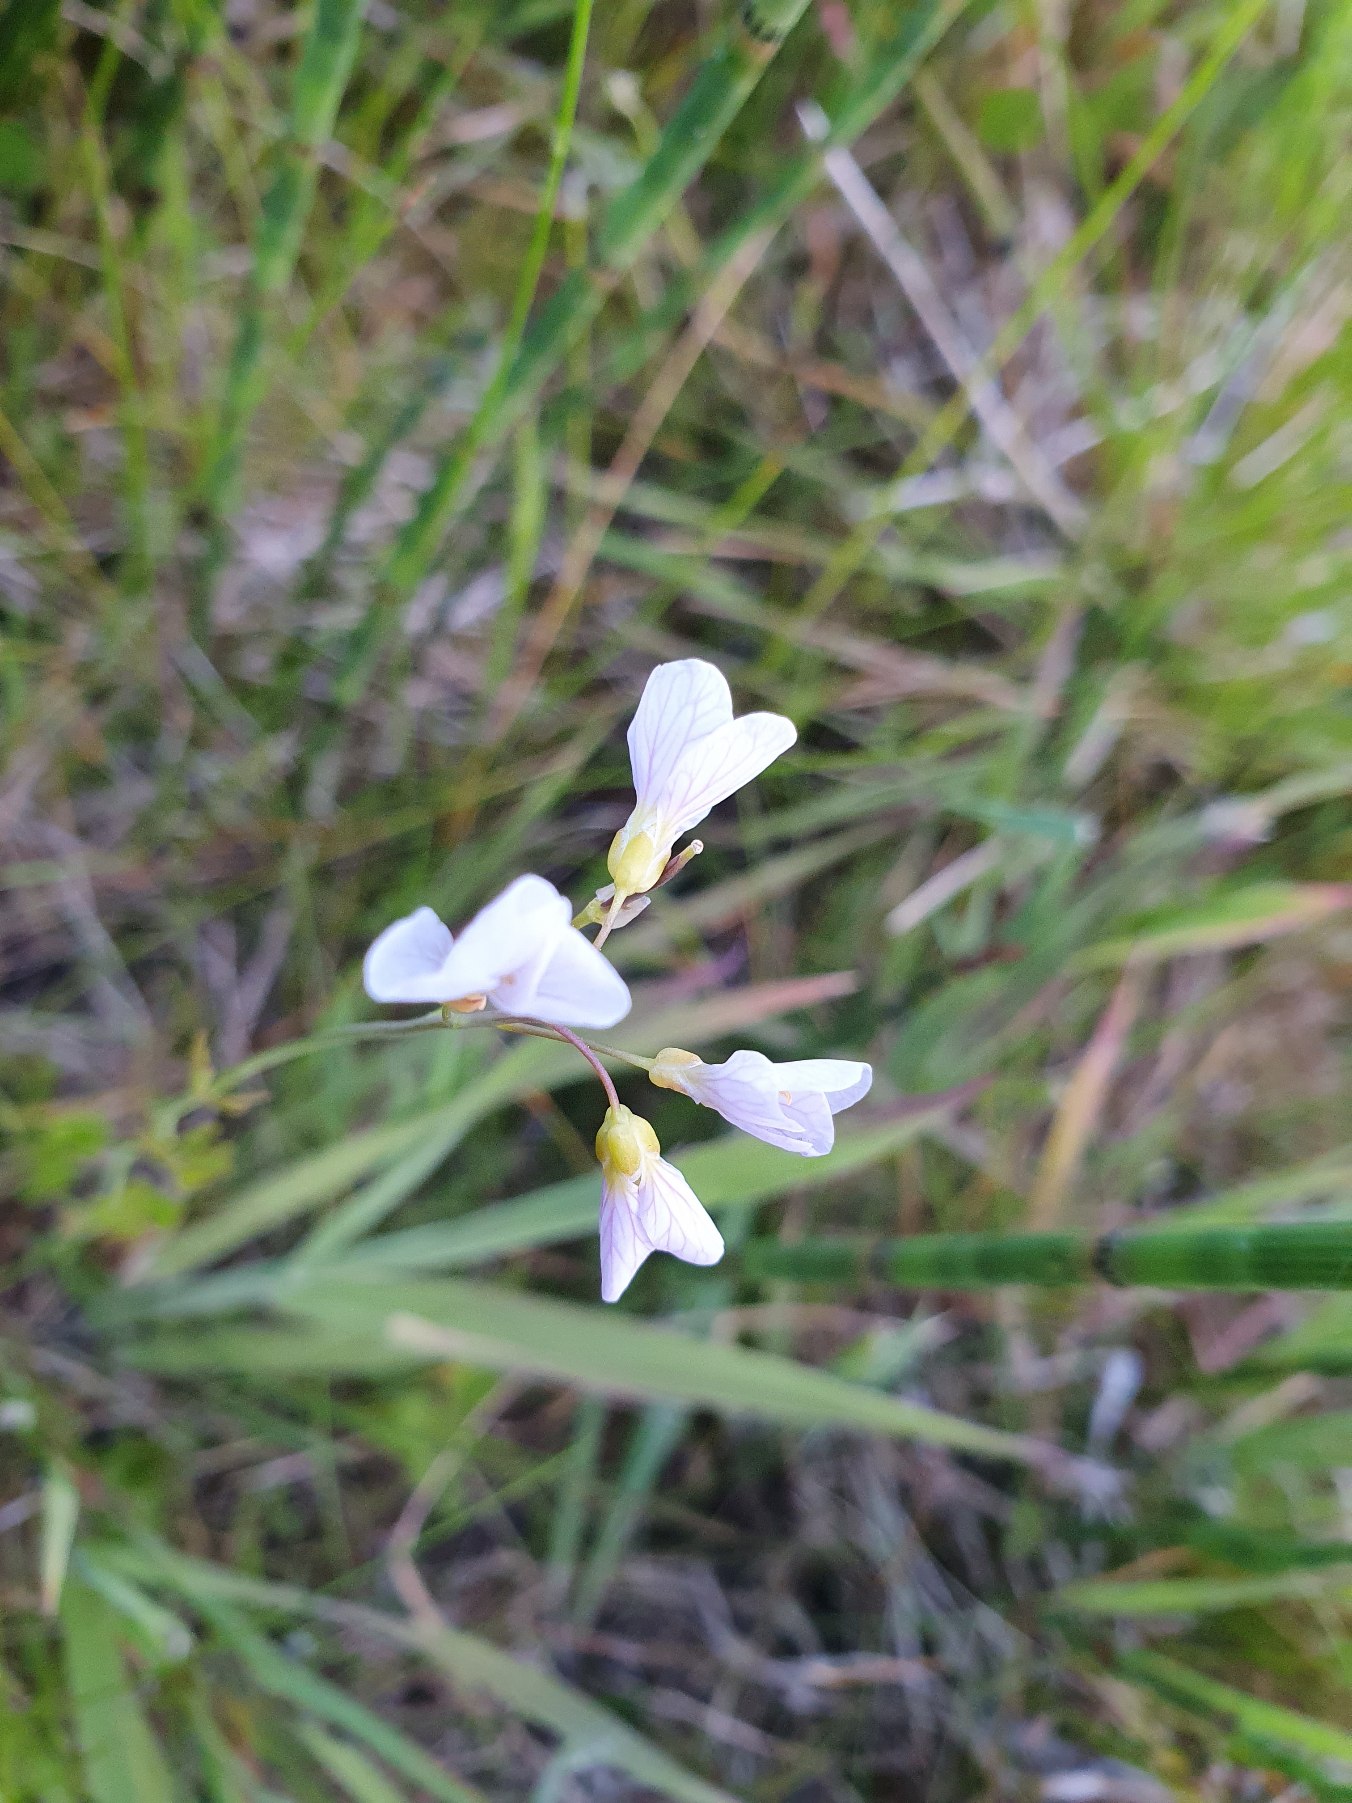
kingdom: Plantae
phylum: Tracheophyta
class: Magnoliopsida
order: Brassicales
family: Brassicaceae
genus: Cardamine
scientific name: Cardamine pratensis
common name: Engkarse
